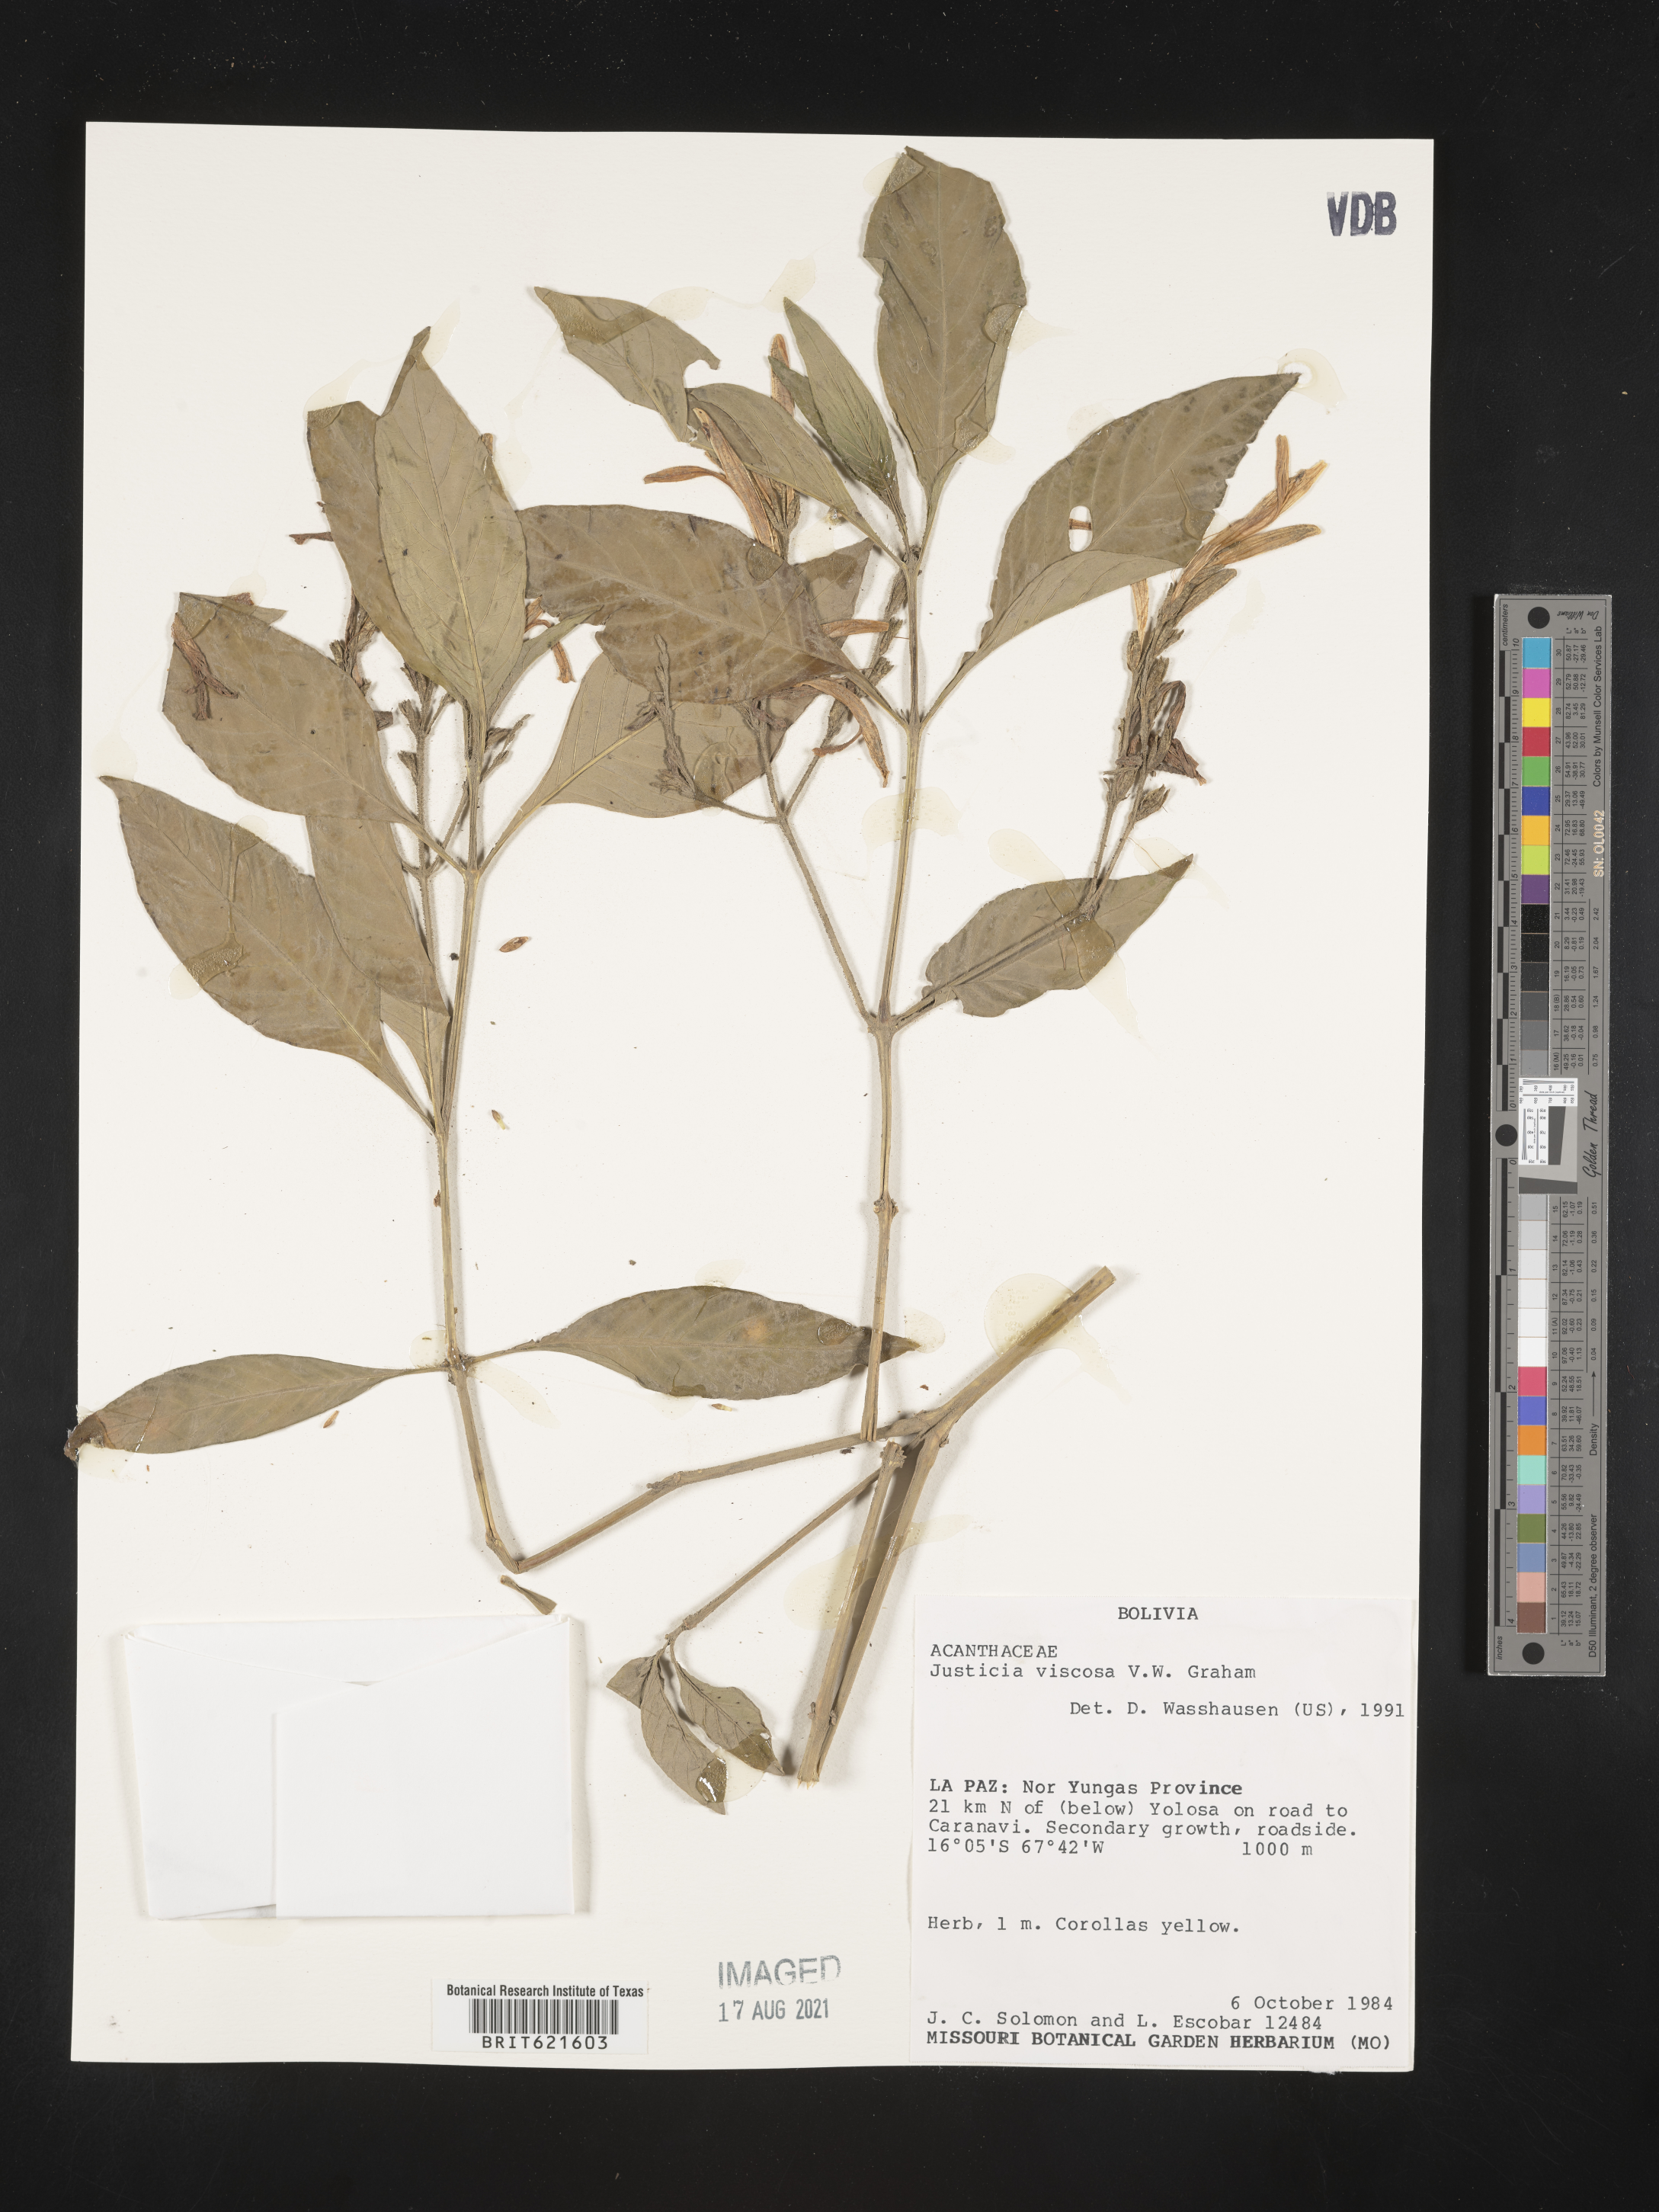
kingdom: Plantae
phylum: Tracheophyta
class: Magnoliopsida
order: Lamiales
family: Acanthaceae
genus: Justicia
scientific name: Justicia boliviensis
